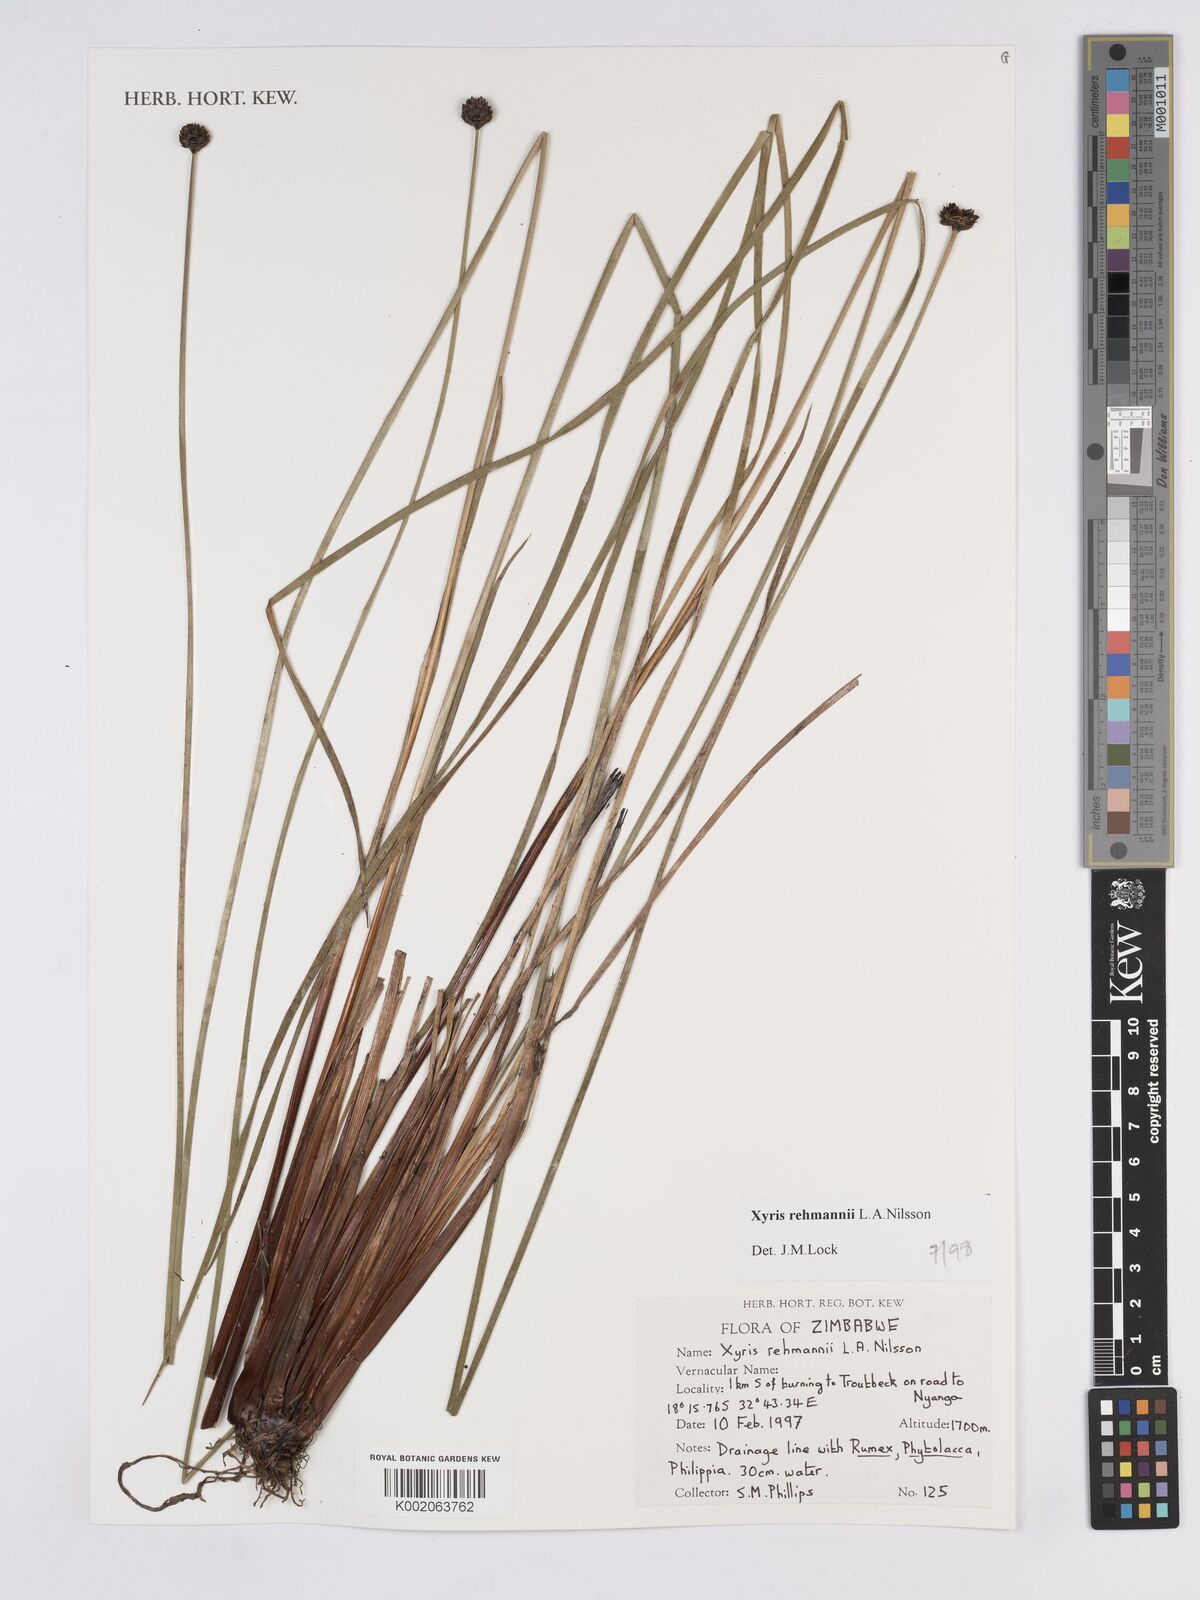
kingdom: Plantae
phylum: Tracheophyta
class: Liliopsida
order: Poales
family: Xyridaceae
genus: Xyris
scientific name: Xyris rehmannii
